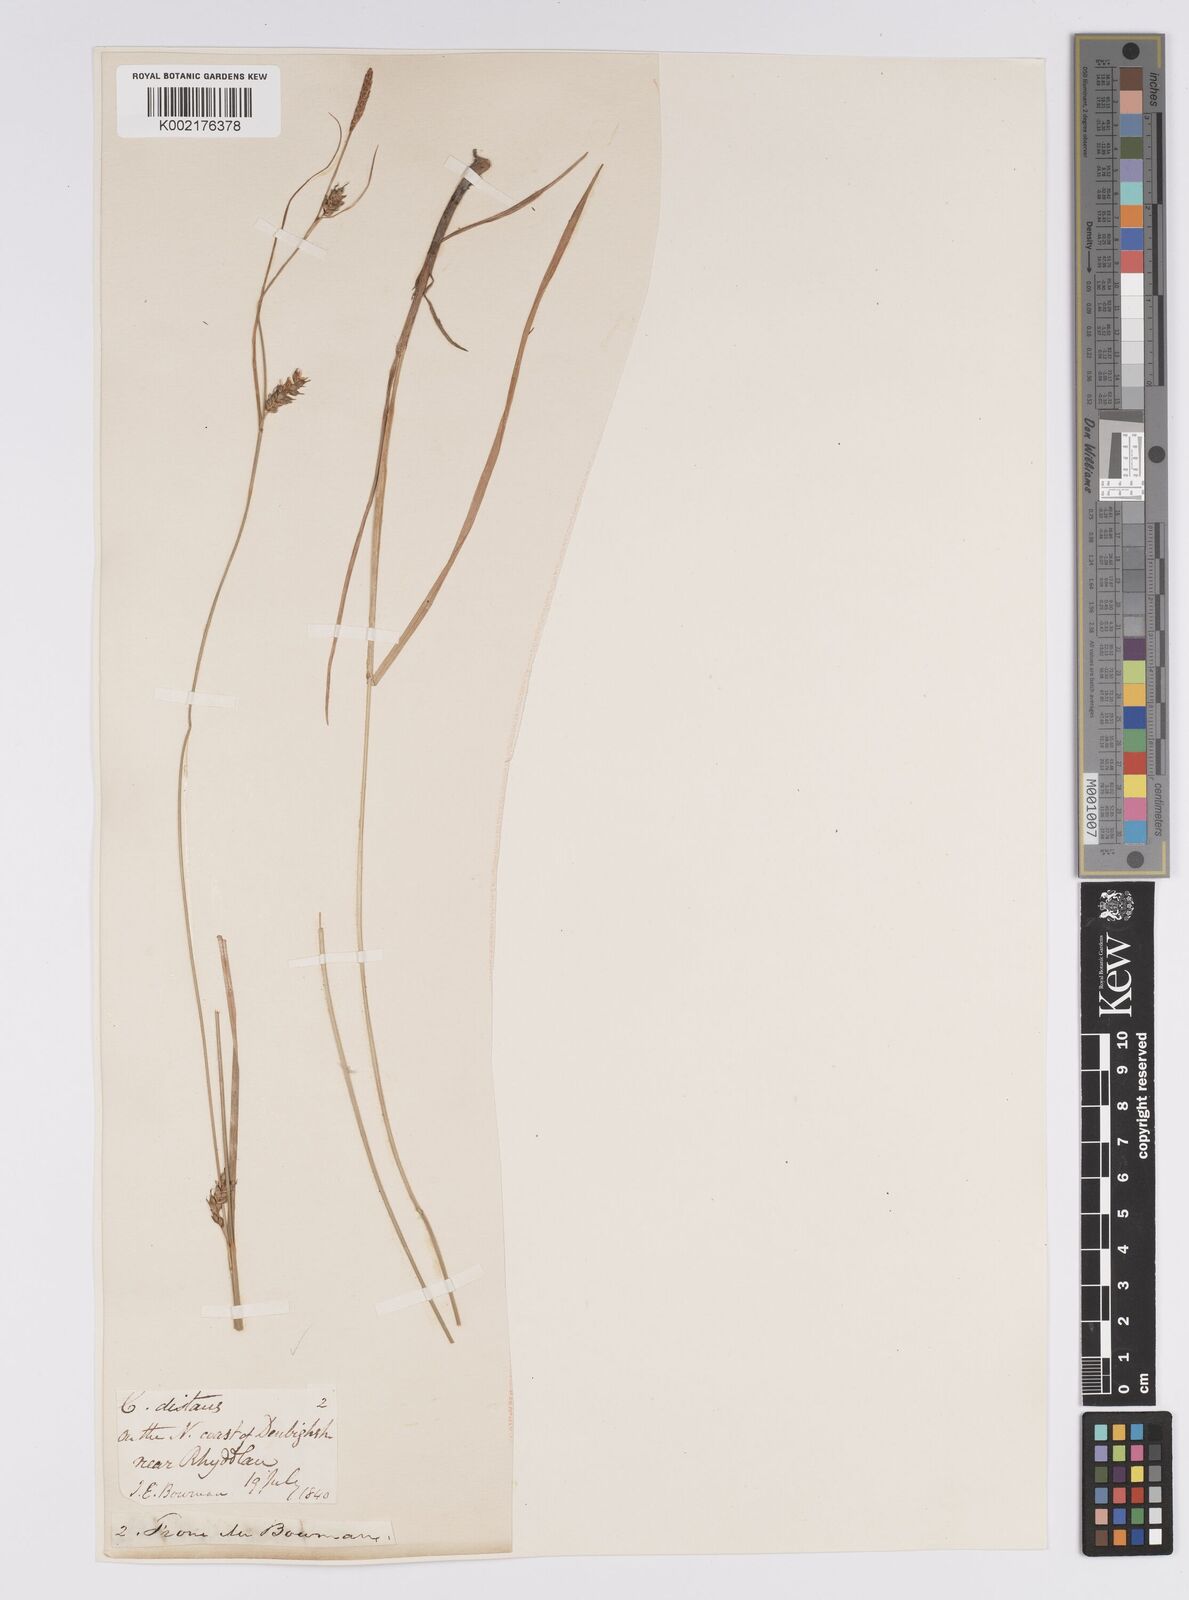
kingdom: Plantae
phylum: Tracheophyta
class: Liliopsida
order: Poales
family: Cyperaceae
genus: Carex
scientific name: Carex distans
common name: Distant sedge
